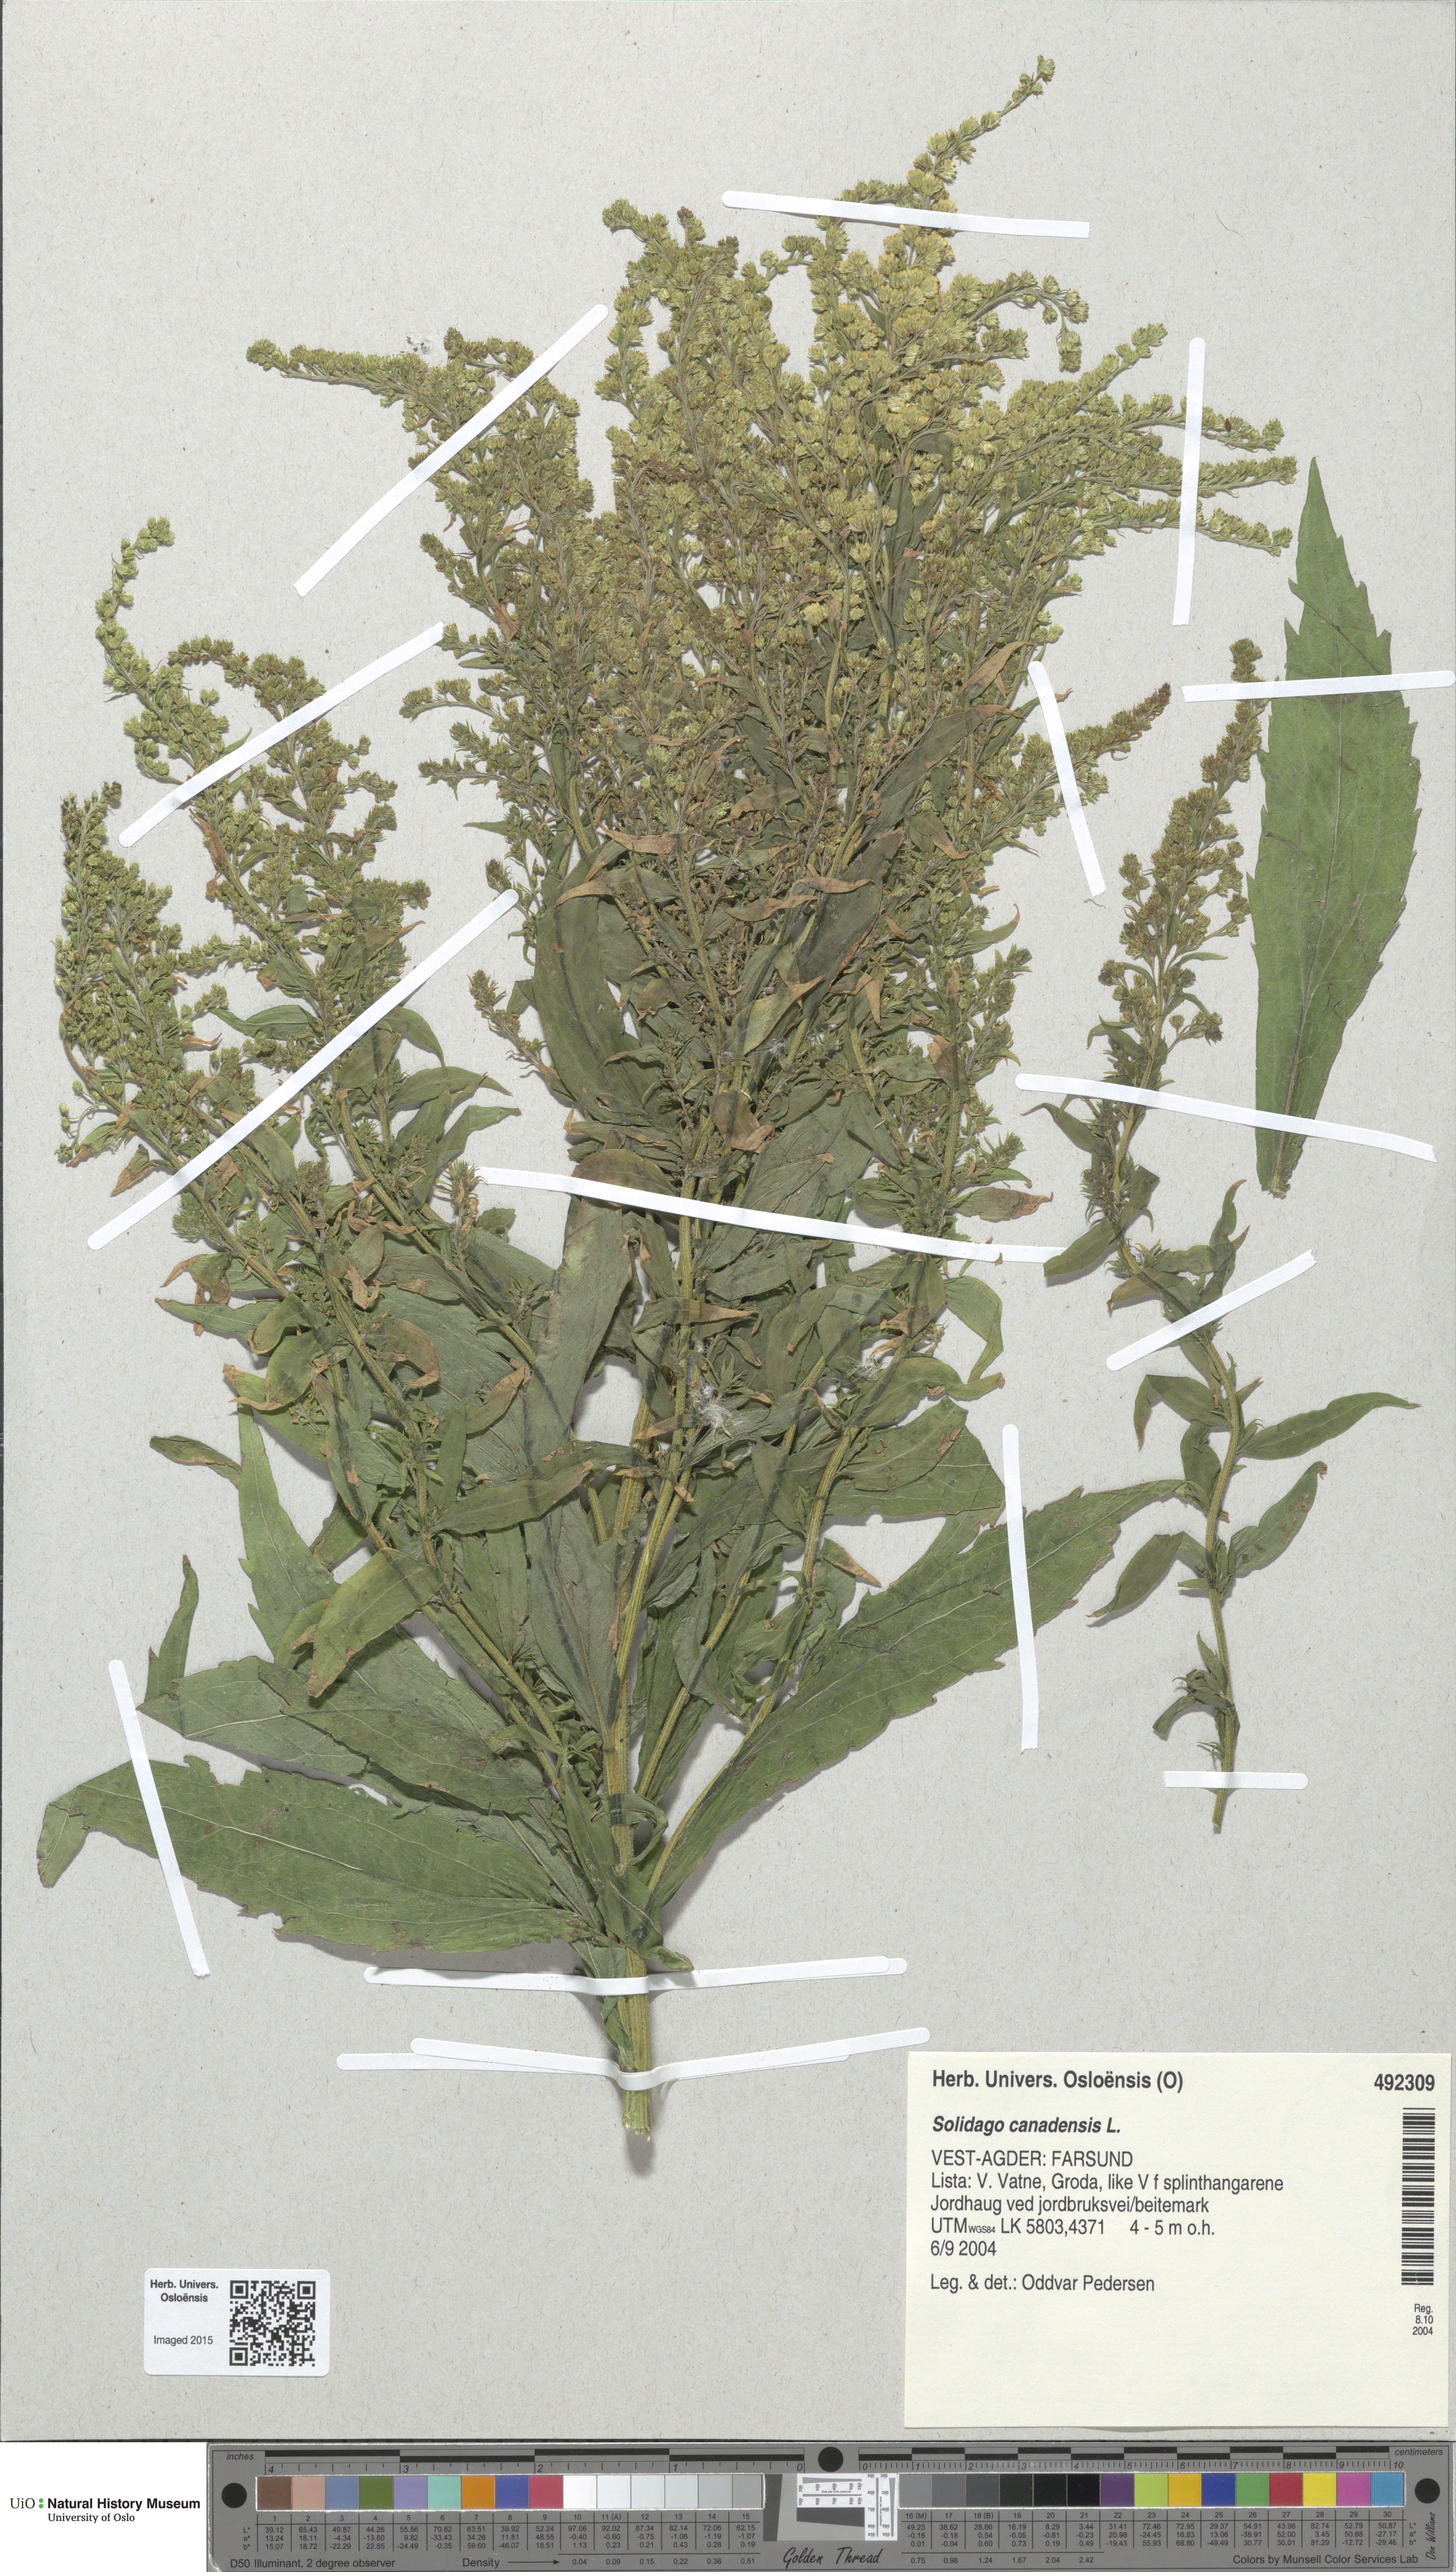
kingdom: Plantae
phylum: Tracheophyta
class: Magnoliopsida
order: Asterales
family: Asteraceae
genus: Solidago
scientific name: Solidago canadensis
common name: Canada goldenrod
